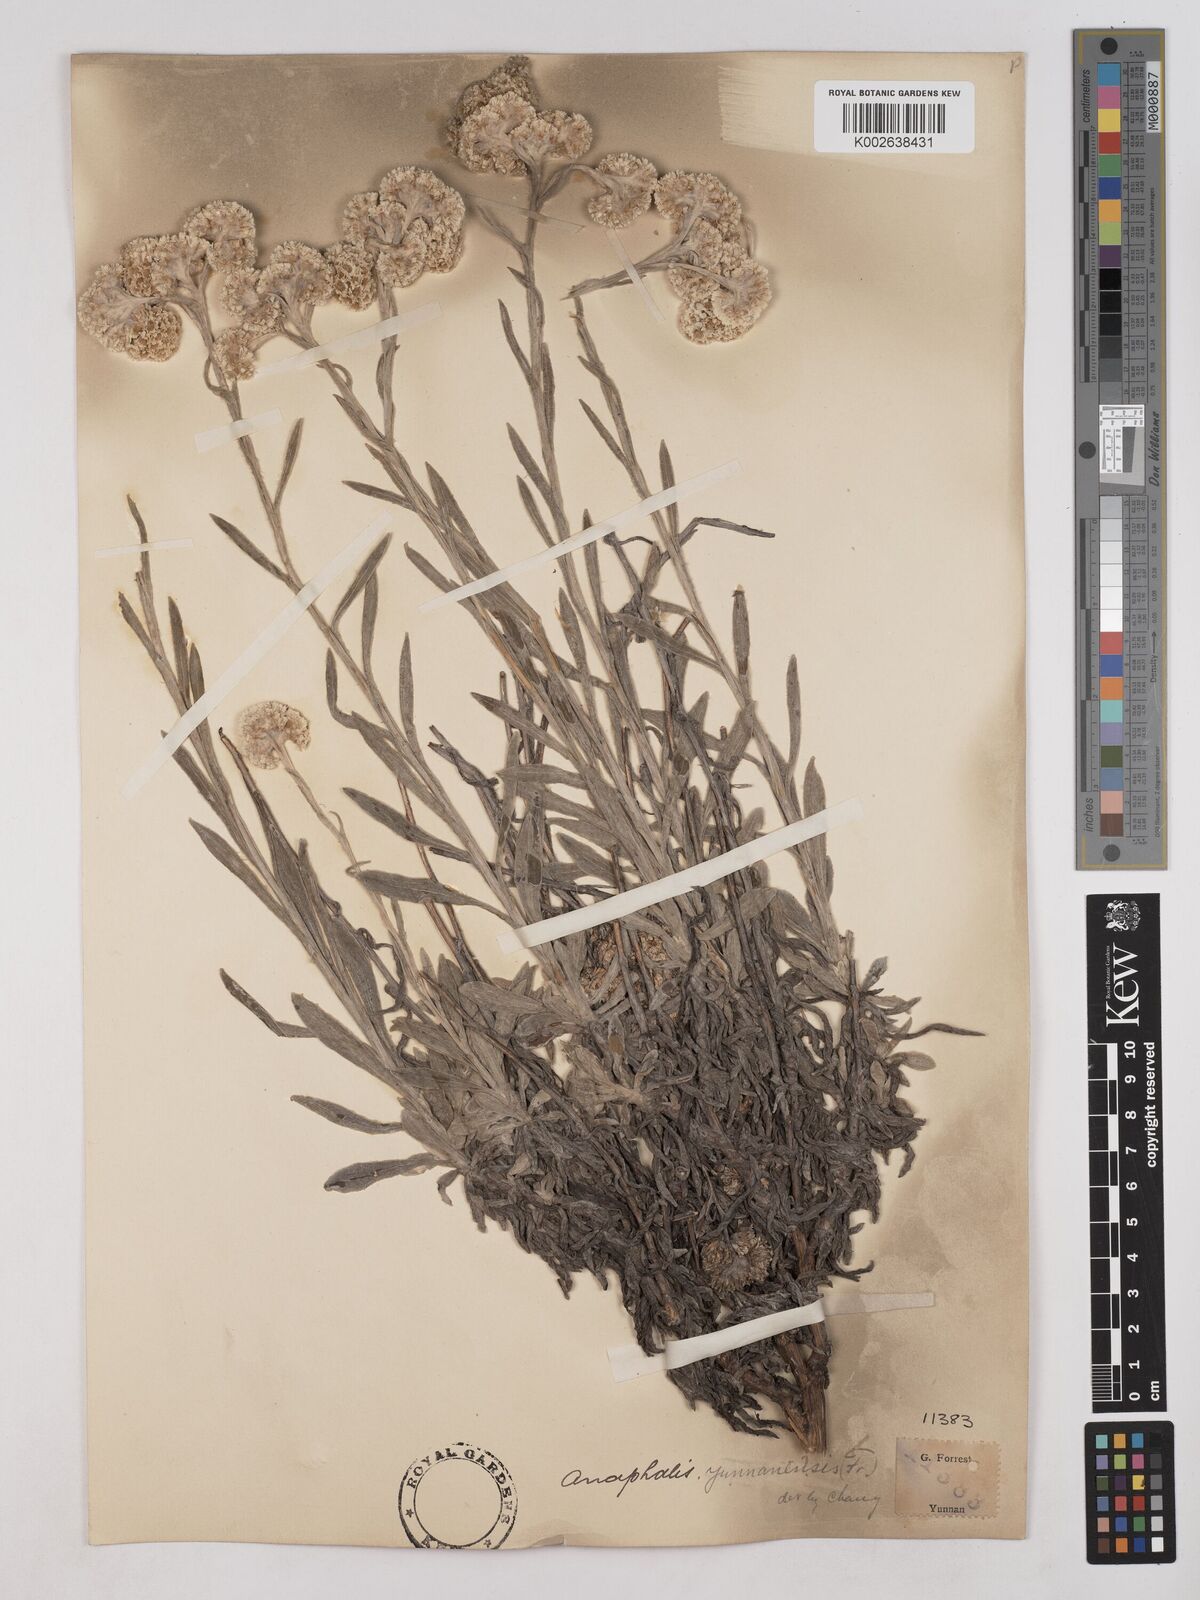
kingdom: Plantae
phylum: Tracheophyta
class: Magnoliopsida
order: Asterales
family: Asteraceae
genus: Anaphalis
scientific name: Anaphalis yunnanensis
